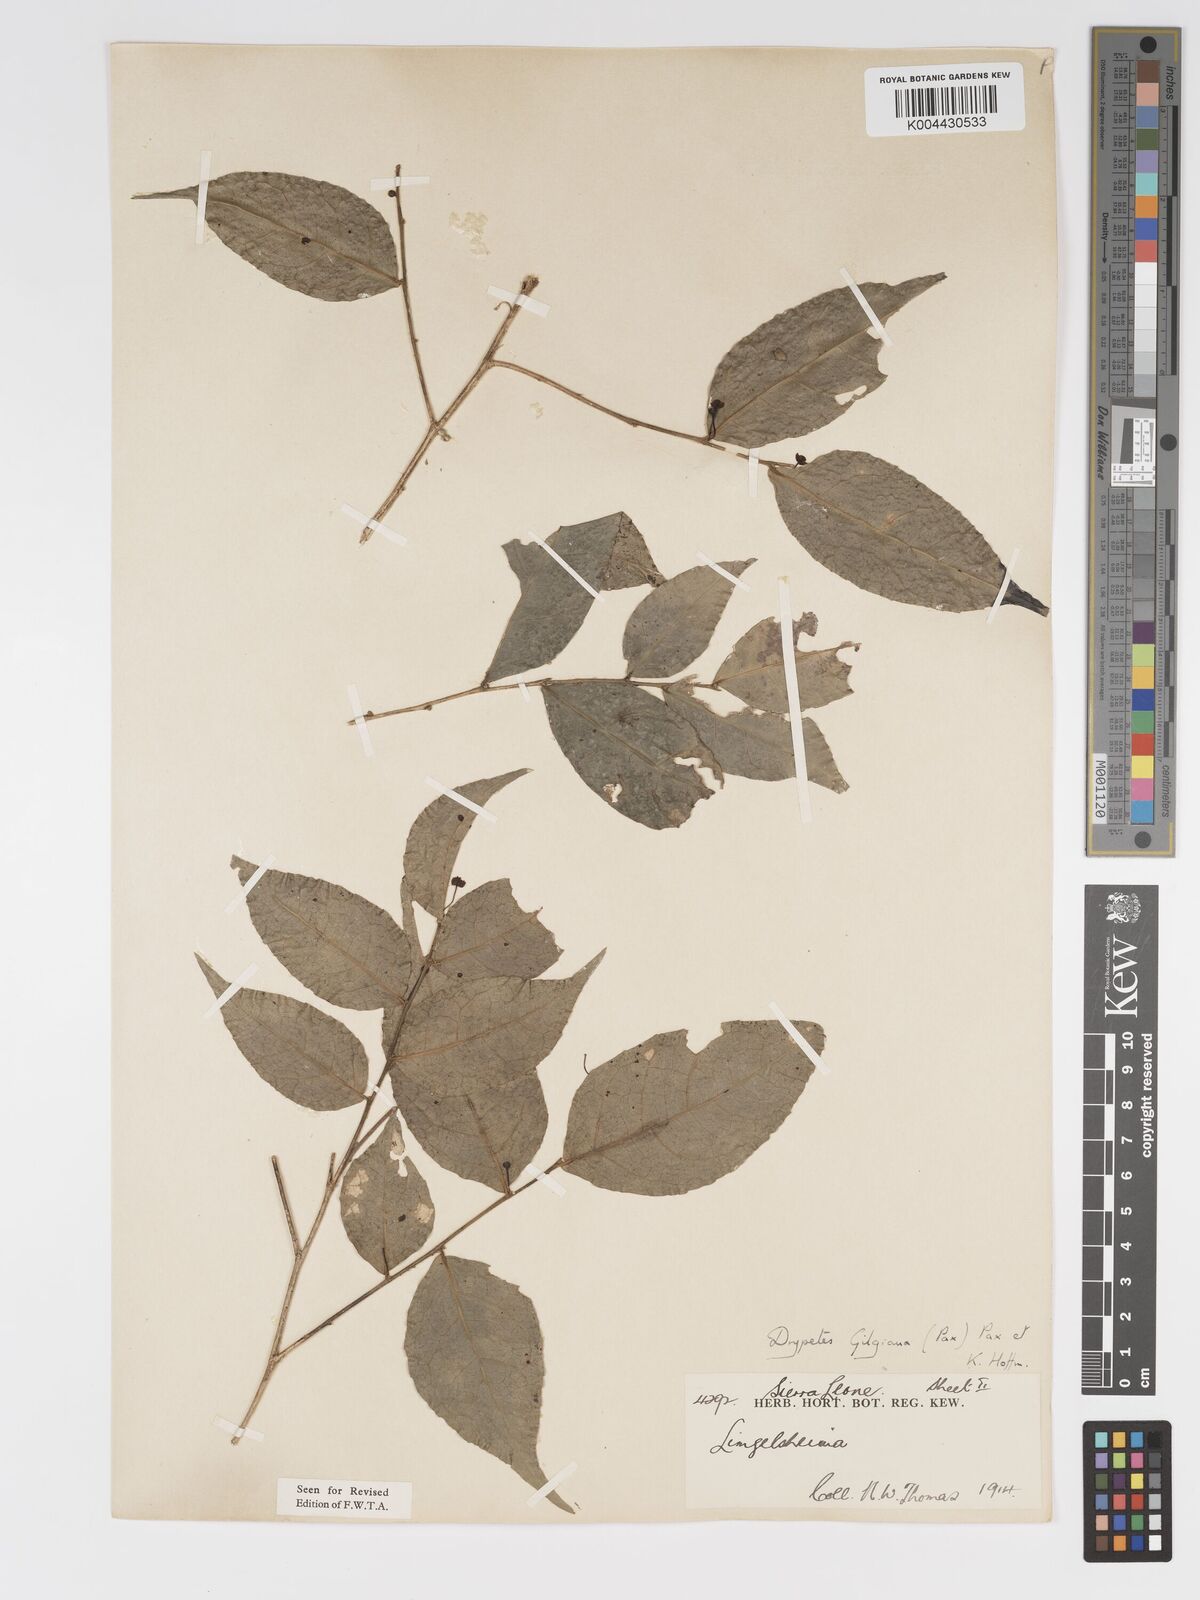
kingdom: Plantae
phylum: Tracheophyta
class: Magnoliopsida
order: Malpighiales
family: Putranjivaceae
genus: Drypetes
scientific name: Drypetes gilgiana
